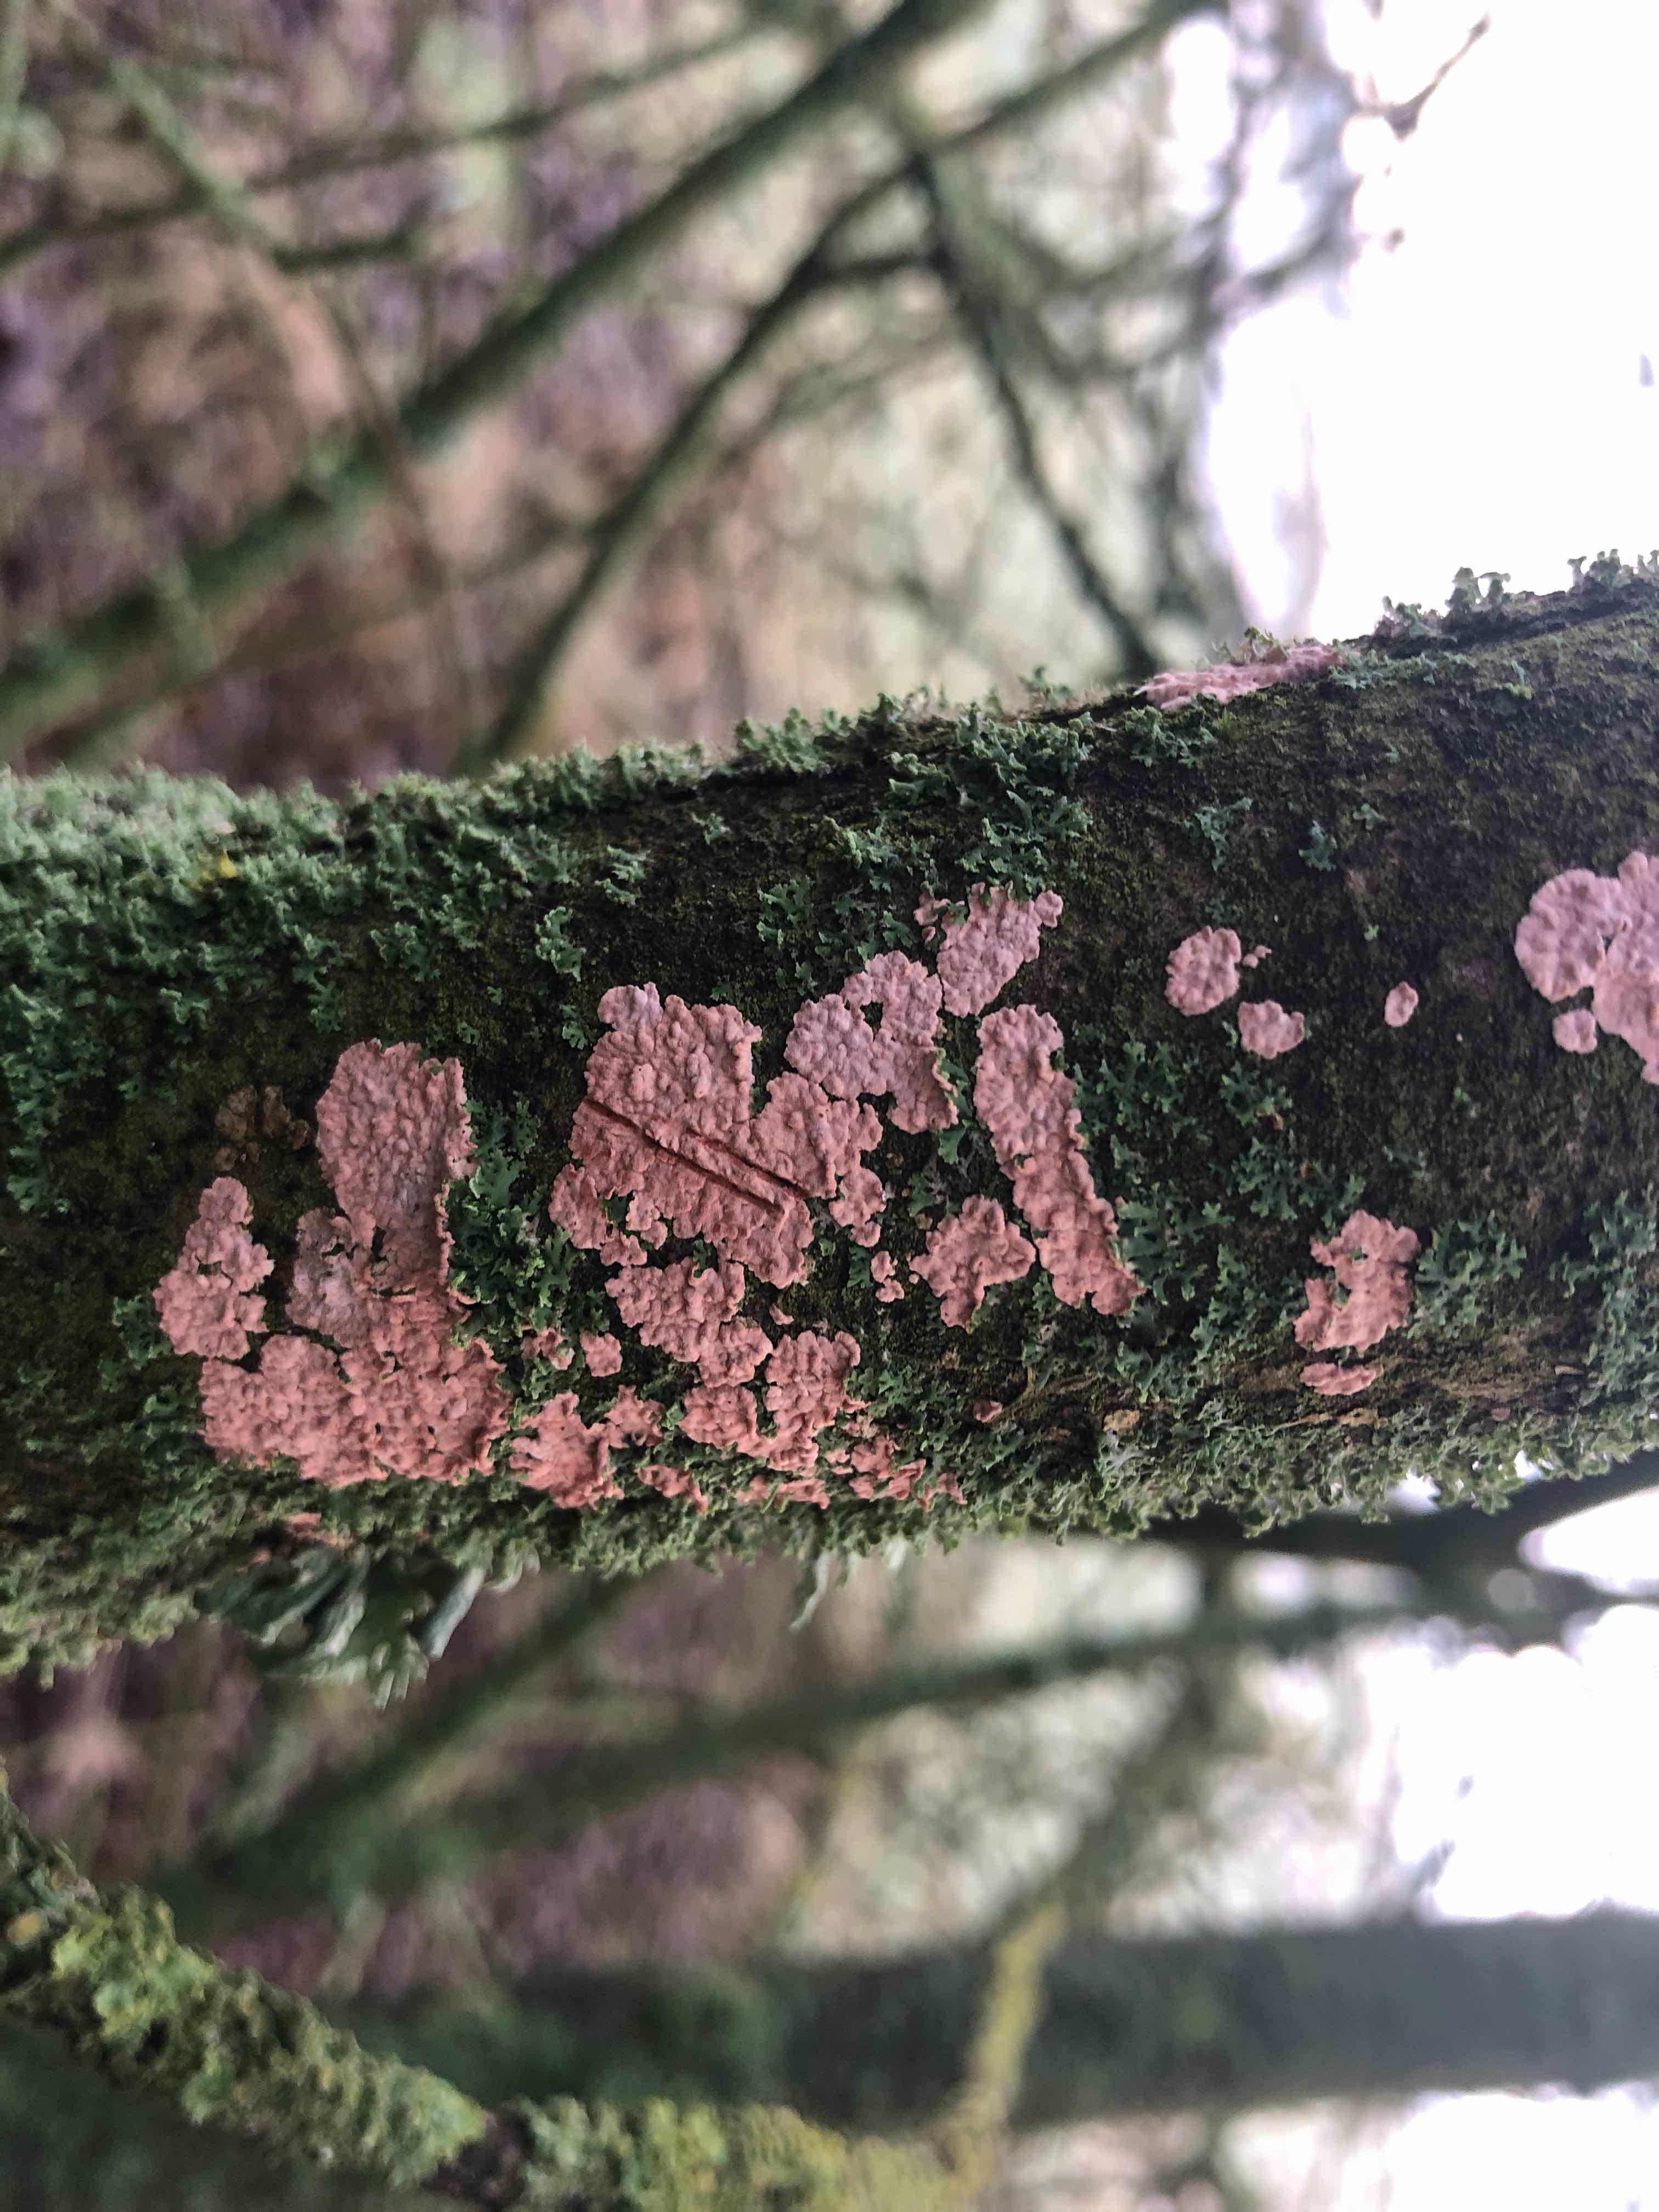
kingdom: Fungi
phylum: Basidiomycota
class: Agaricomycetes
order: Corticiales
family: Corticiaceae
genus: Corticium
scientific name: Corticium roseum
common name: rosa barkskind
